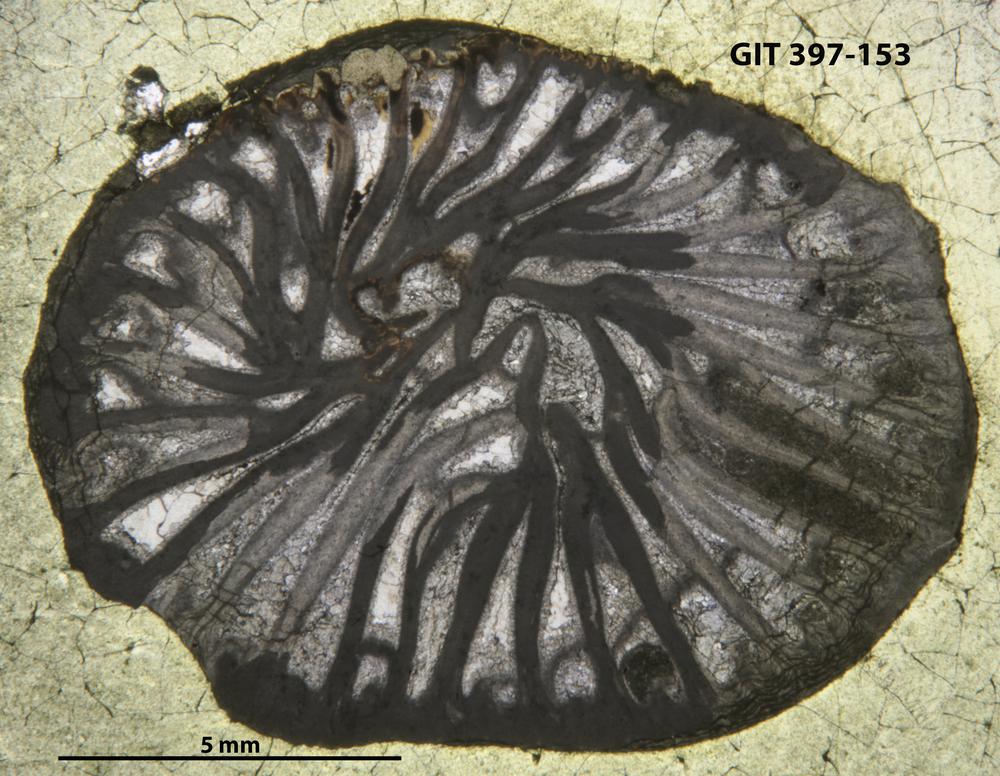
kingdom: Animalia
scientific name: Animalia
